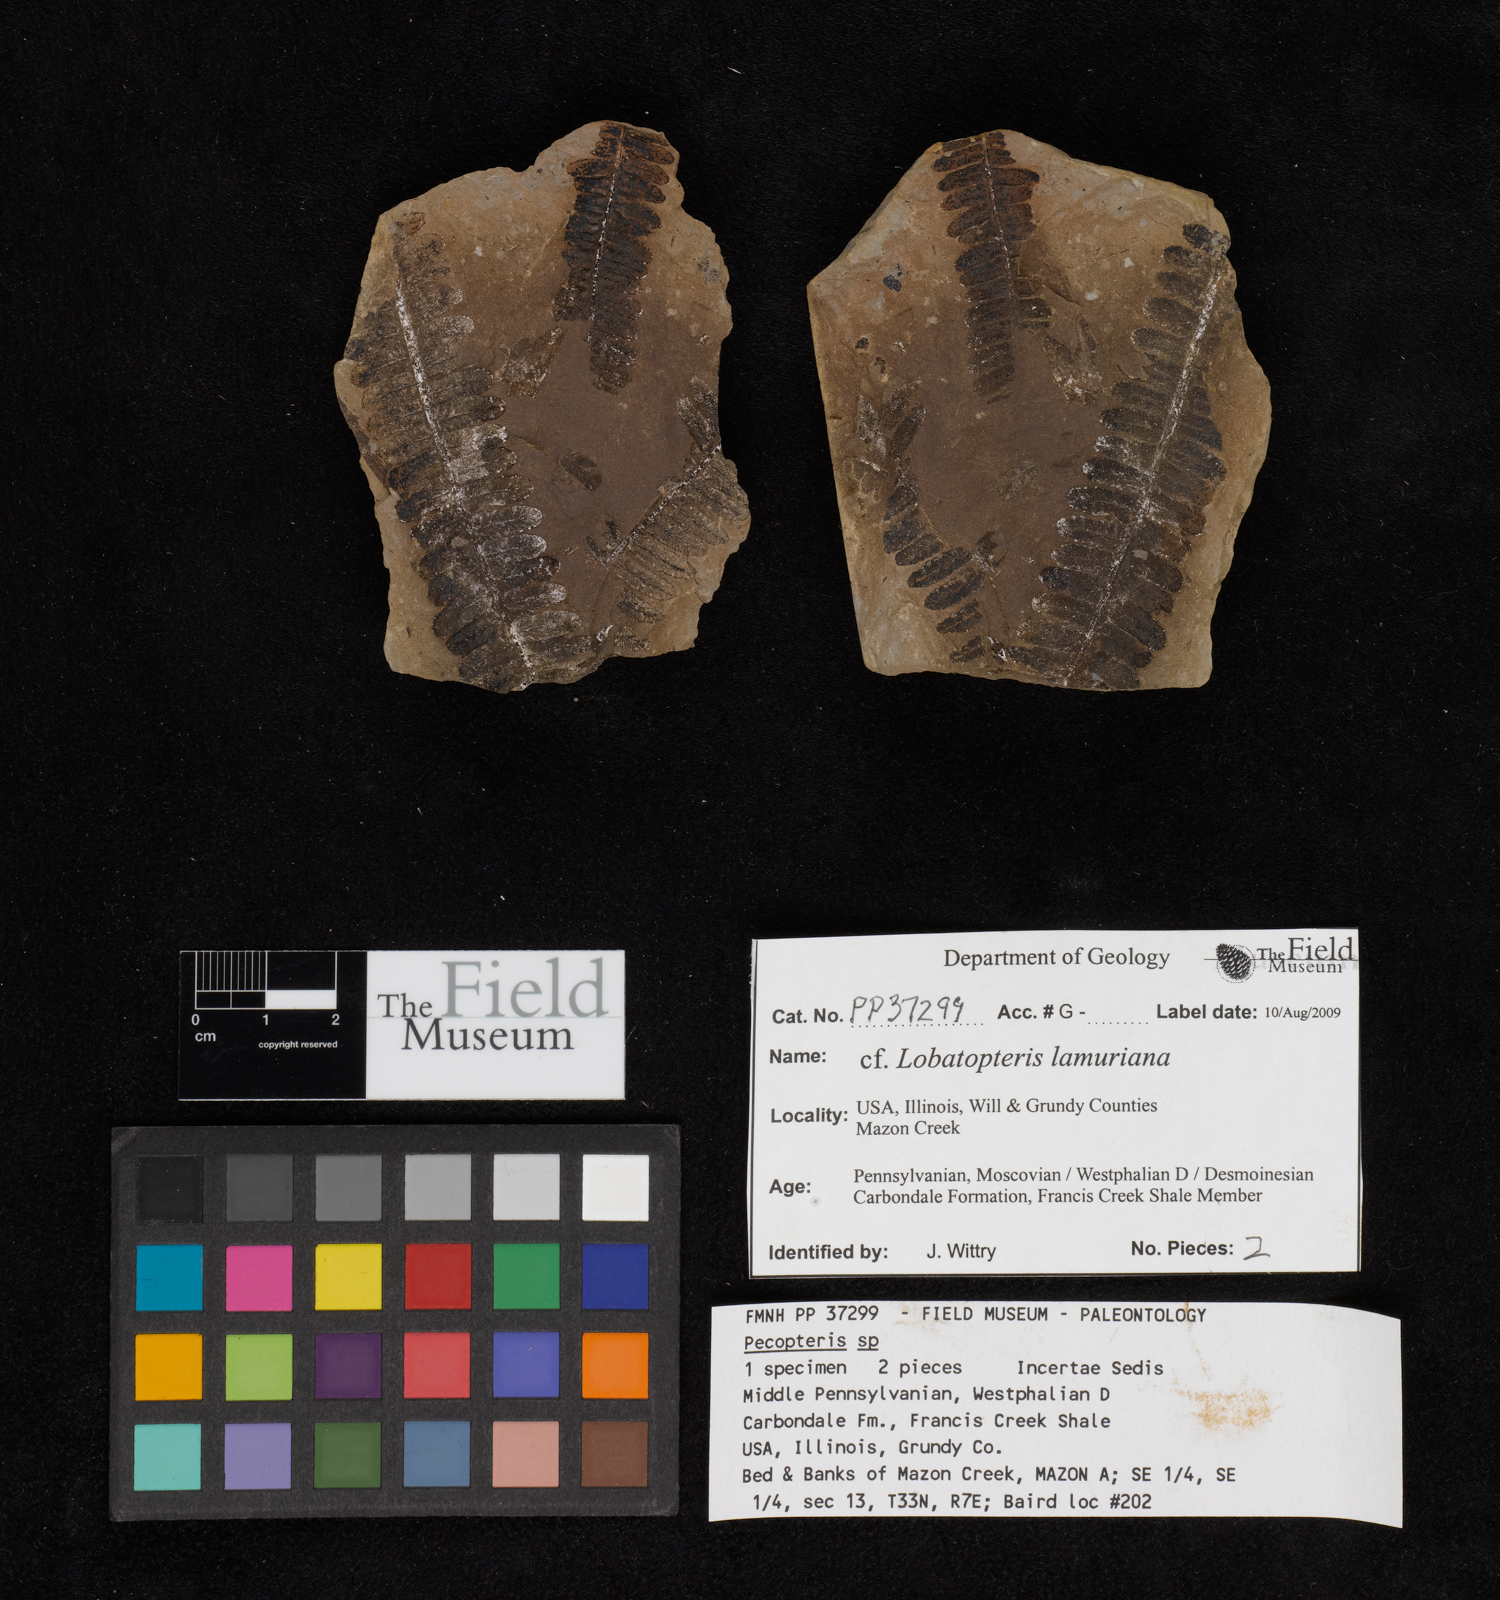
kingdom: Plantae
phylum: Tracheophyta
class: Polypodiopsida
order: Marattiales
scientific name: Marattiales
